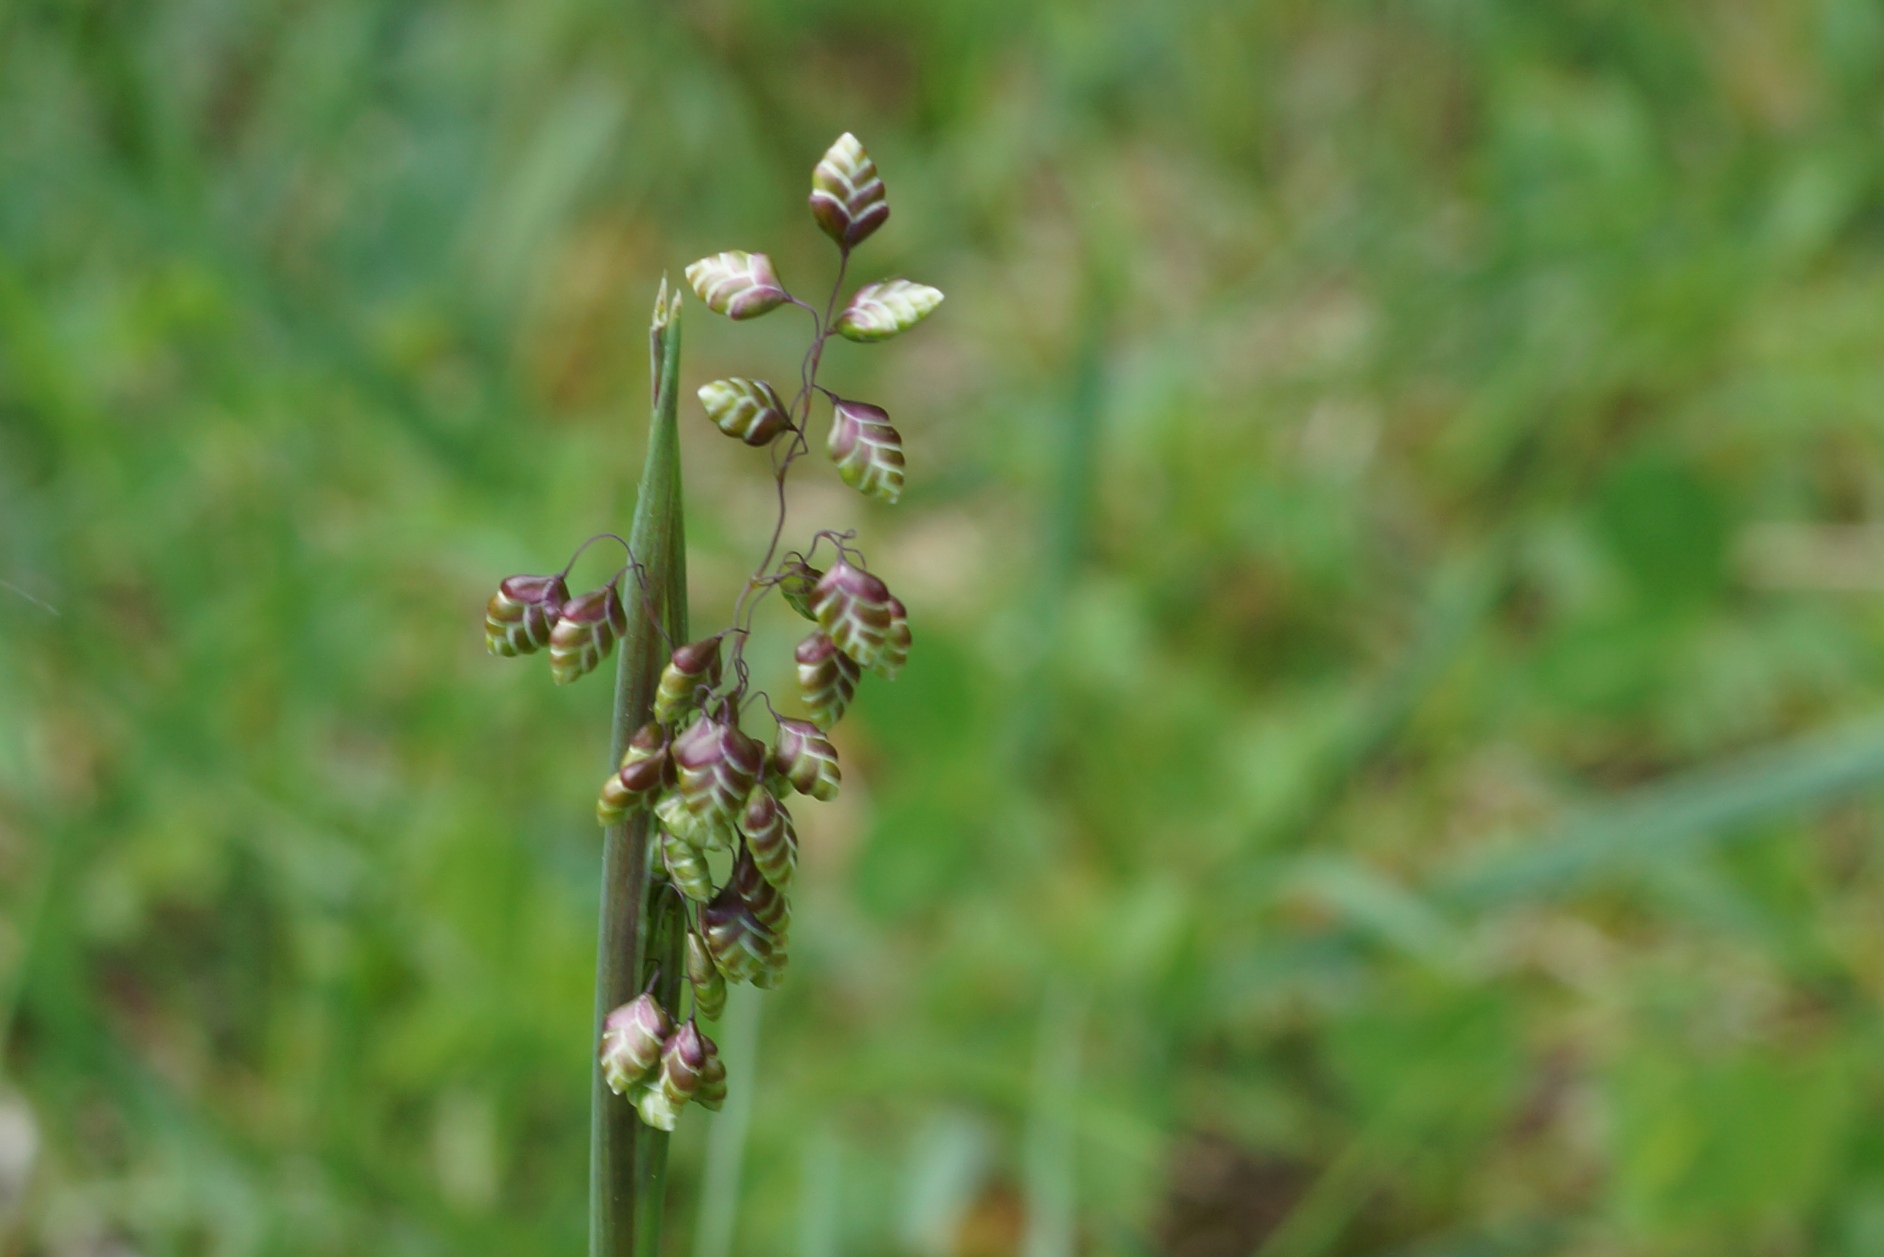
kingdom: Plantae
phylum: Tracheophyta
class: Liliopsida
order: Poales
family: Poaceae
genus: Briza
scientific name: Briza media
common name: Hjertegræs
